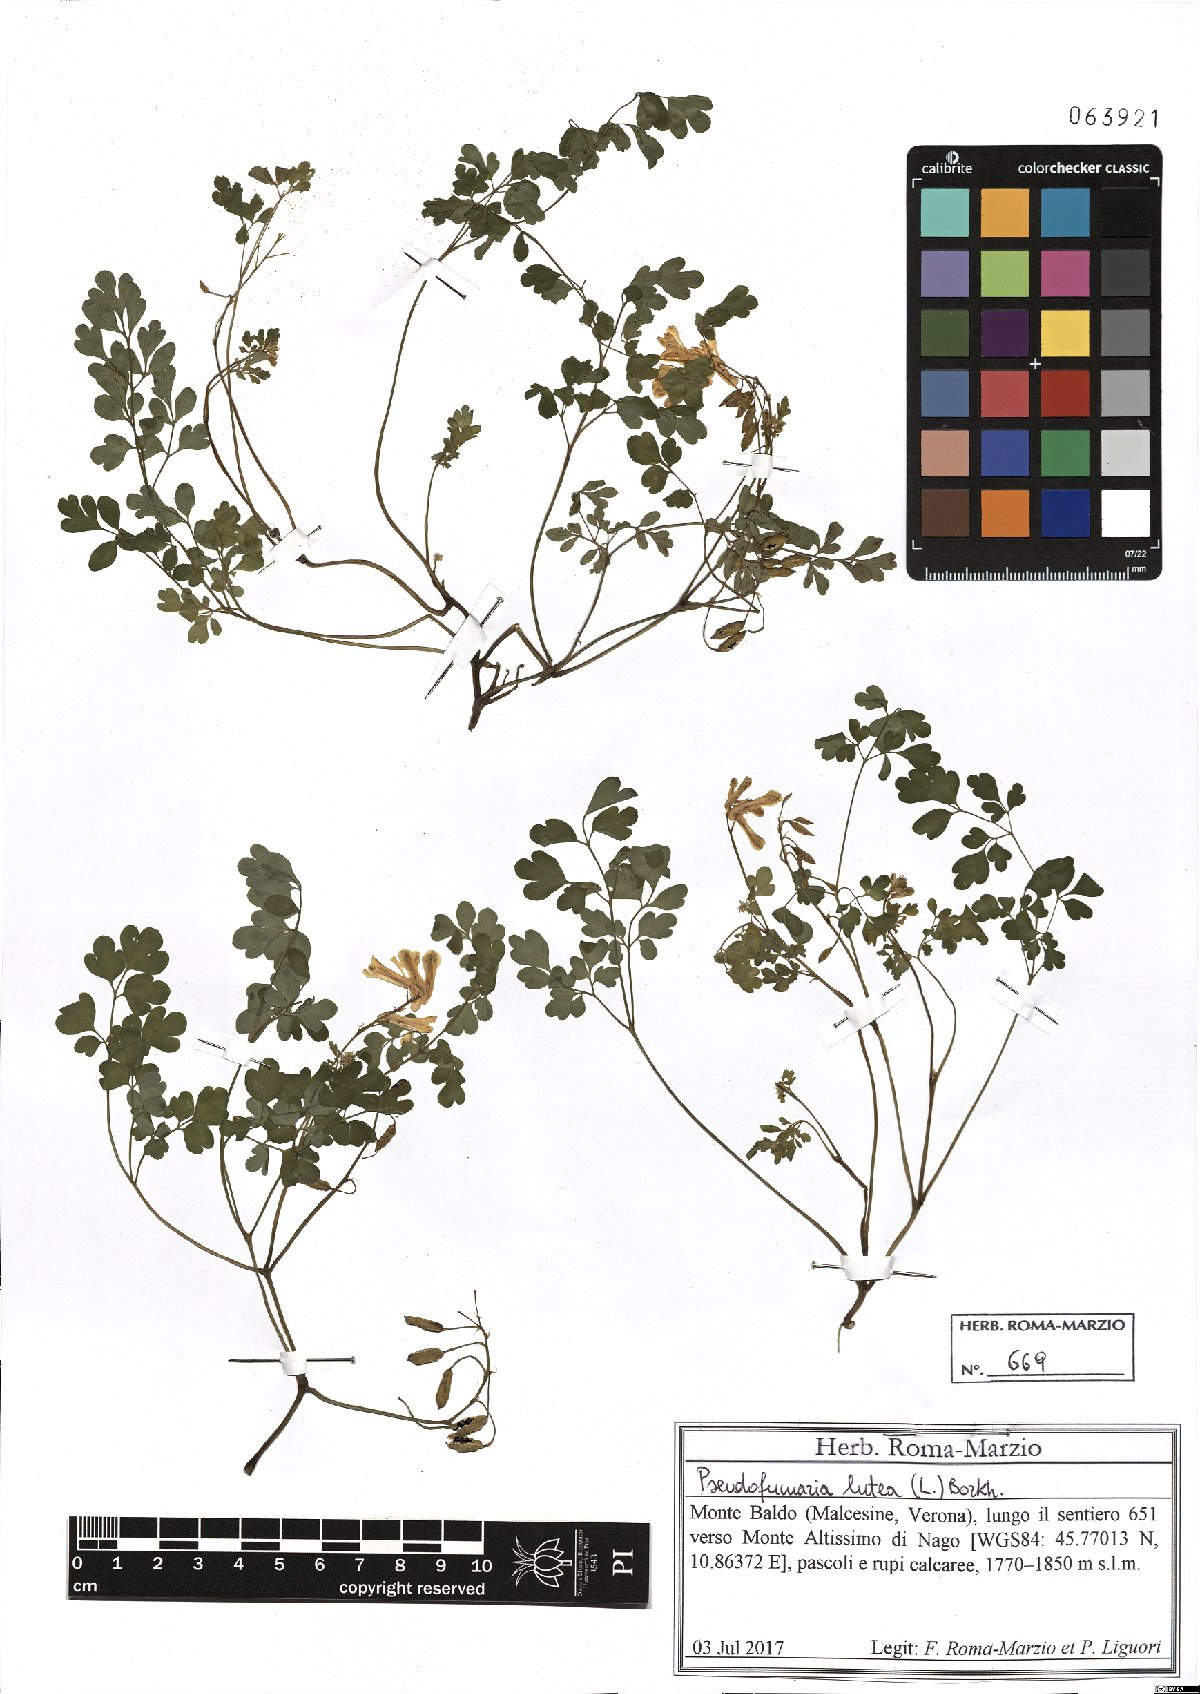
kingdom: Plantae
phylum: Tracheophyta
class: Magnoliopsida
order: Ranunculales
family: Papaveraceae
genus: Pseudofumaria
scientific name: Pseudofumaria lutea
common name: Yellow corydalis
